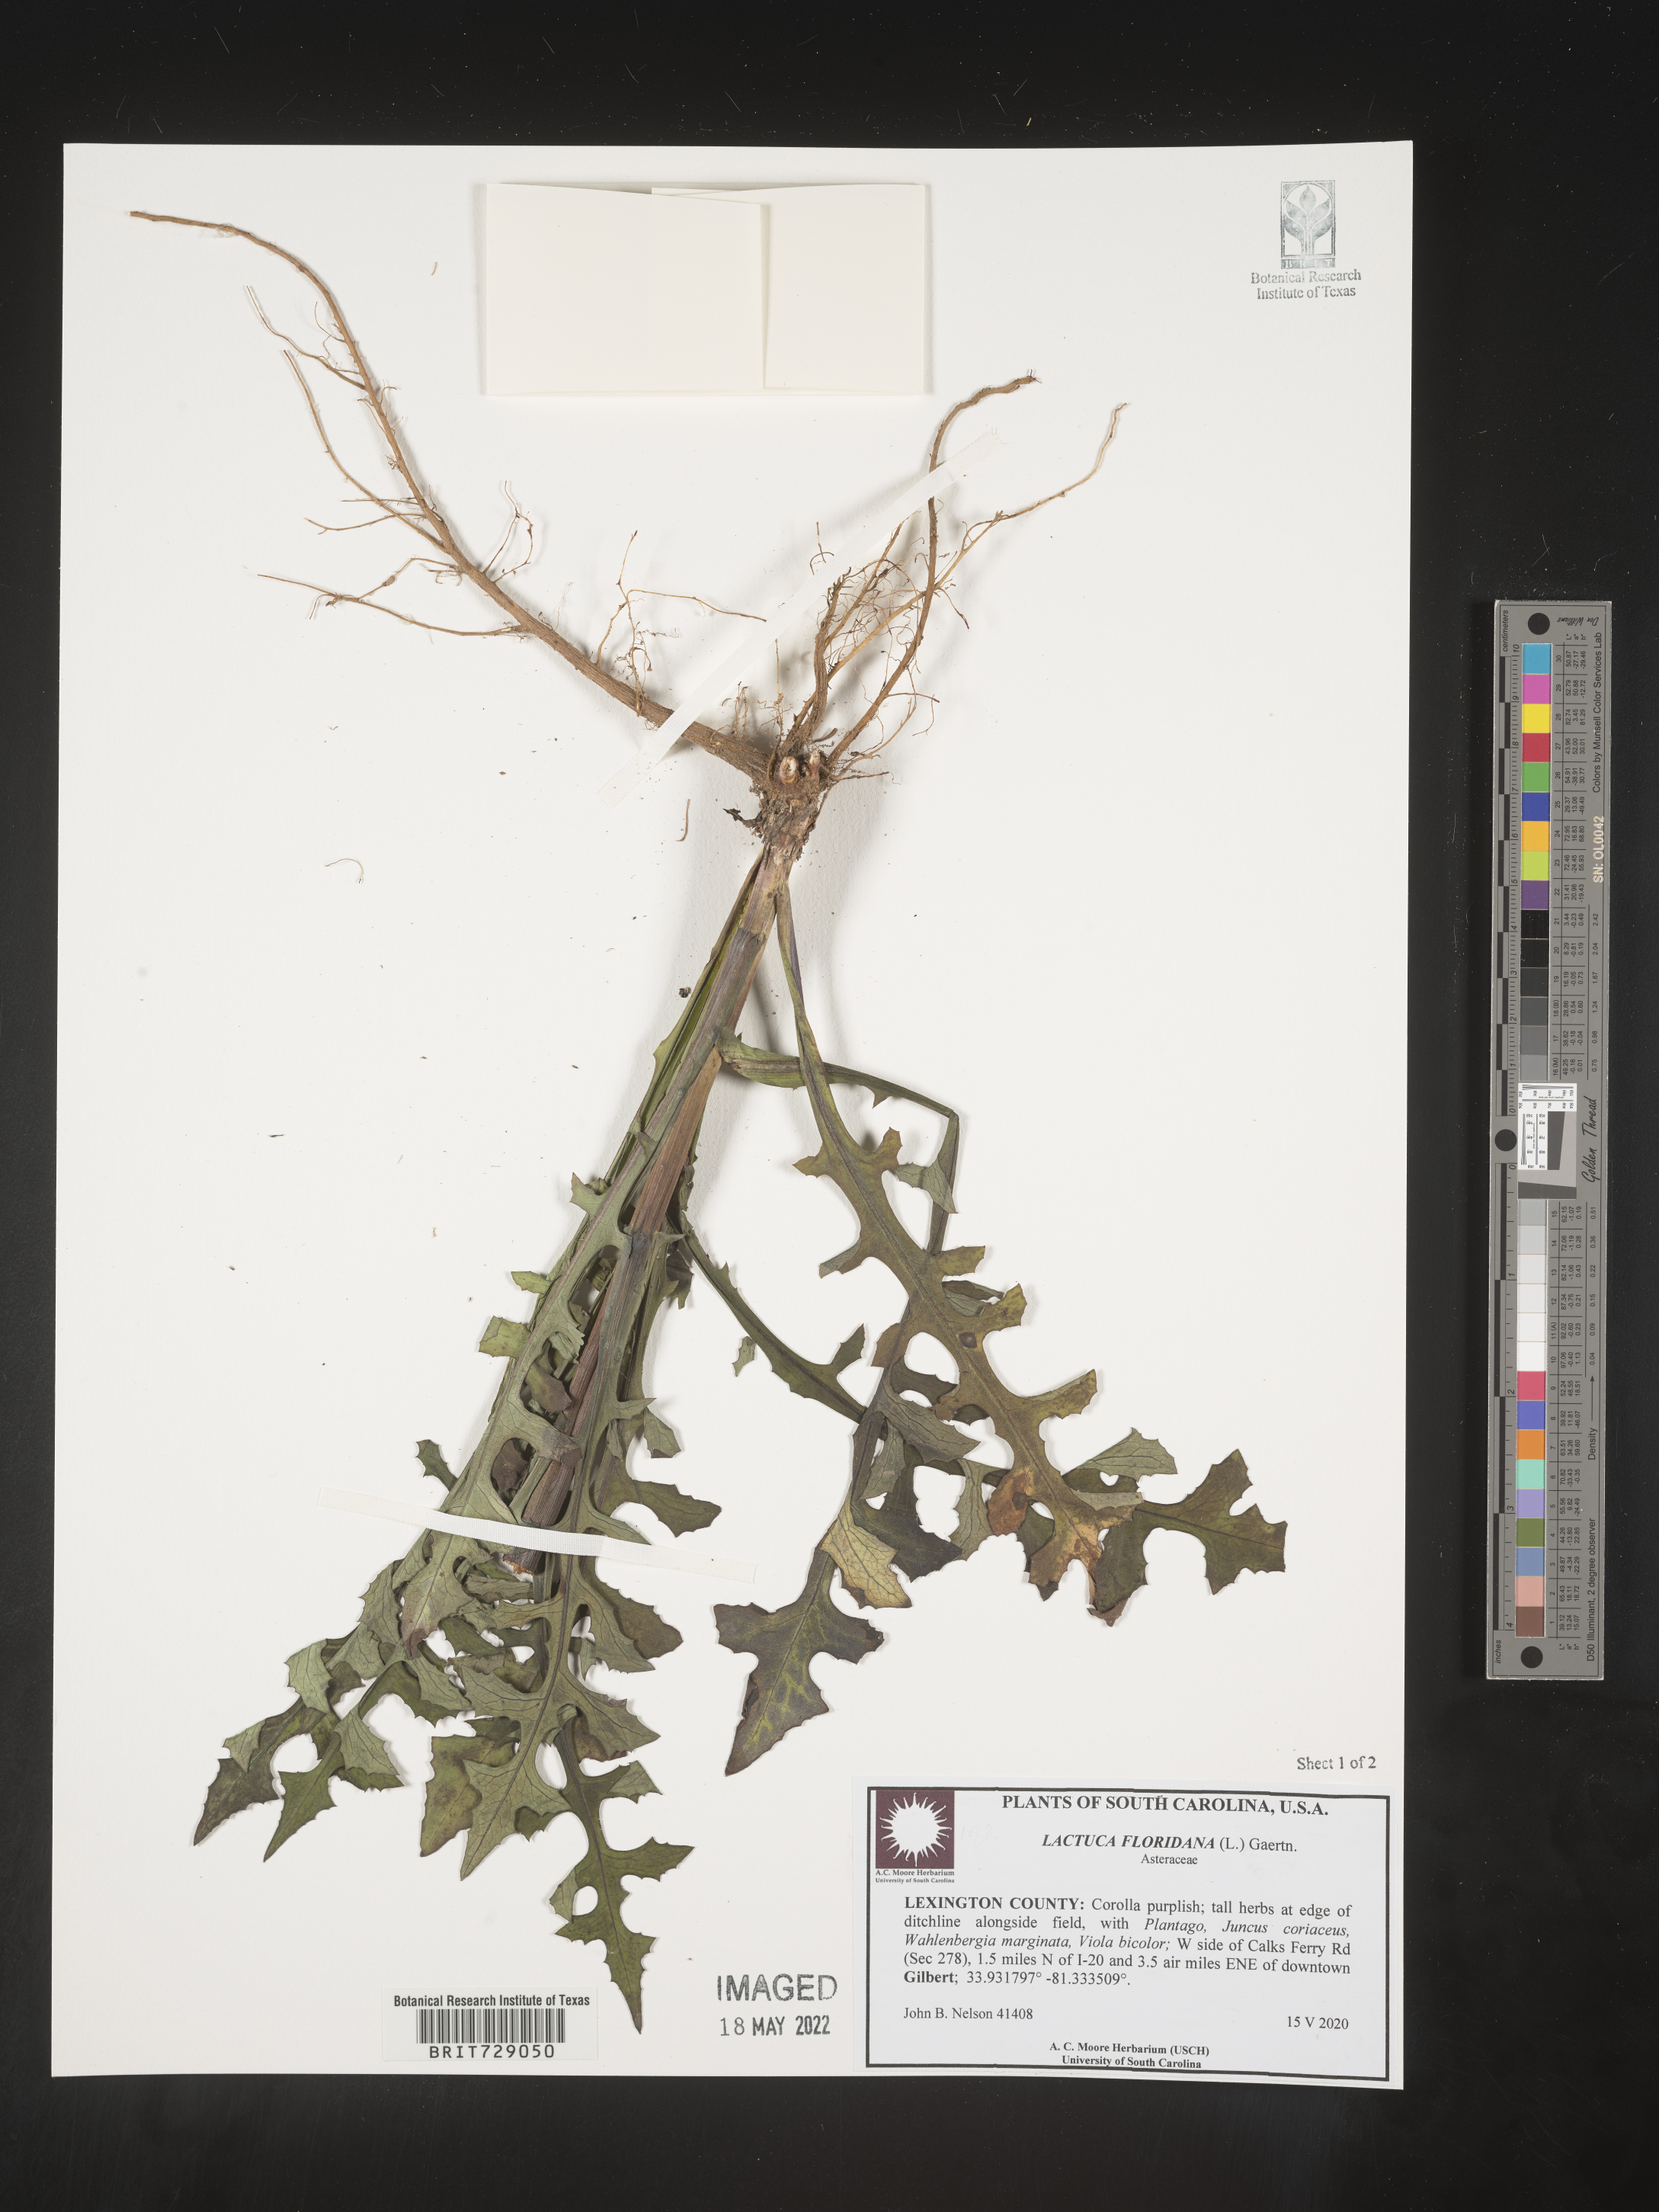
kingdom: Plantae
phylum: Tracheophyta
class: Magnoliopsida
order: Asterales
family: Asteraceae
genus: Lactuca
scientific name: Lactuca floridana
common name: Woodland lettuce
